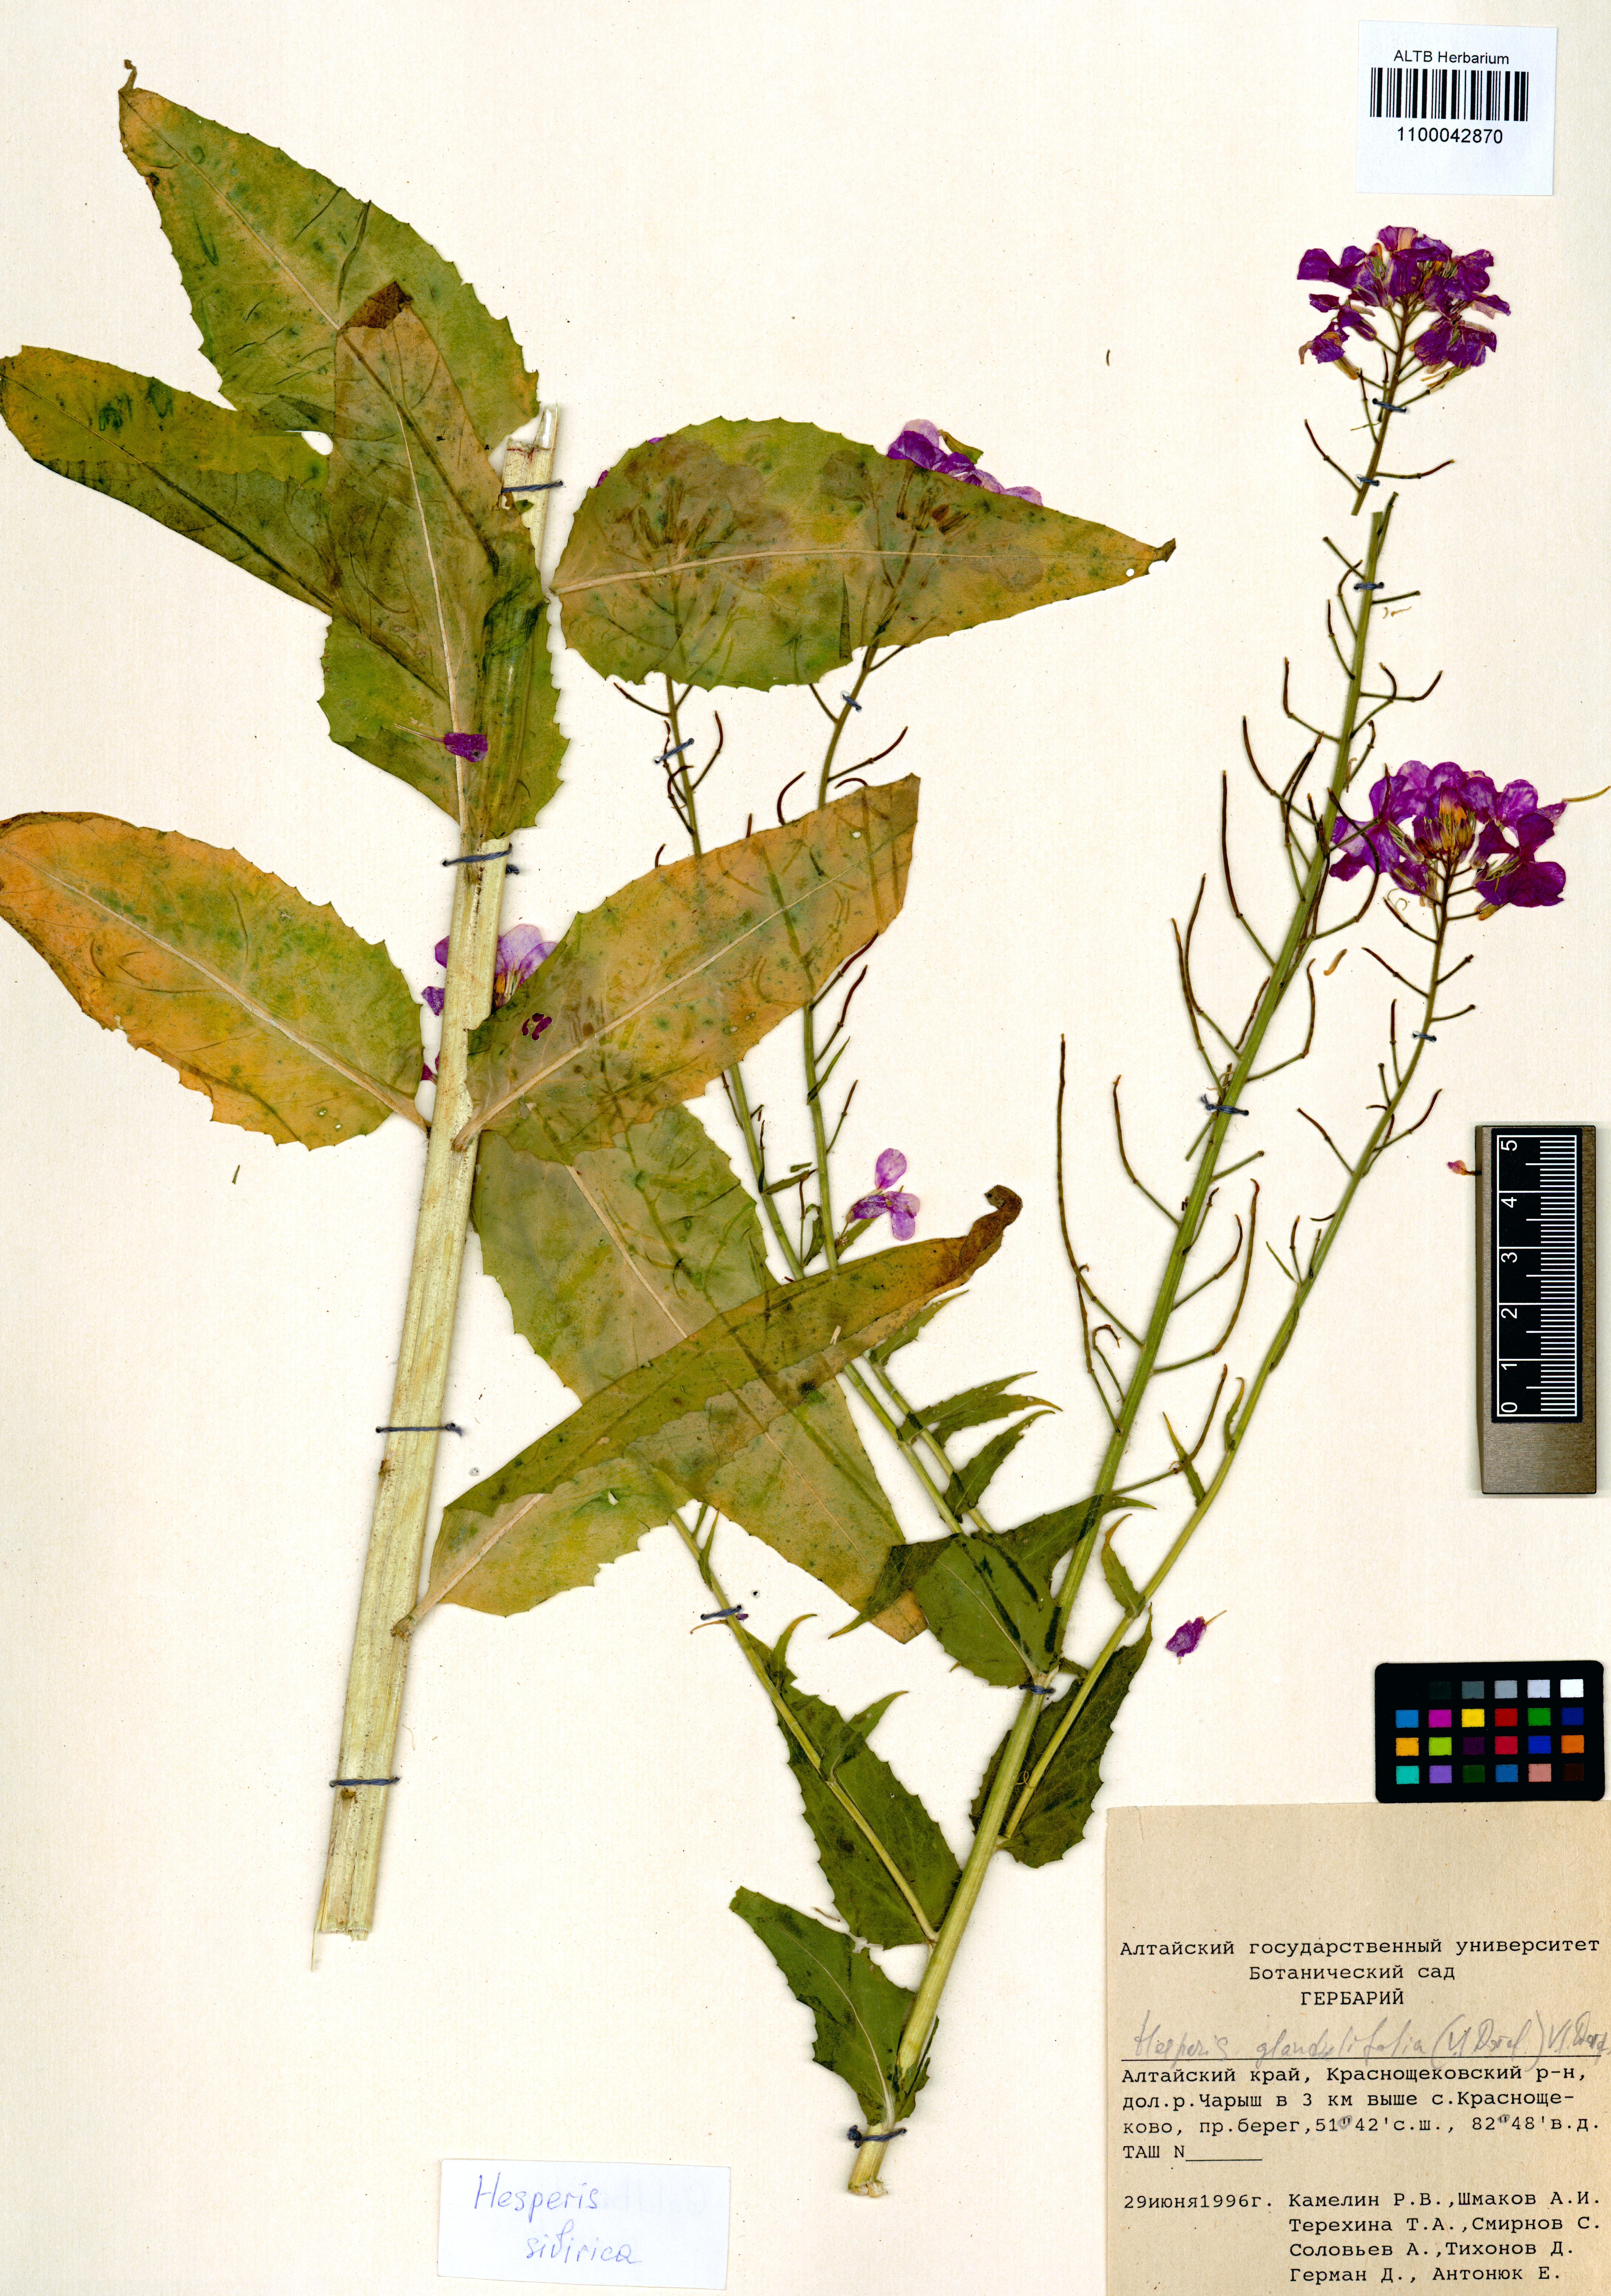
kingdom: Plantae
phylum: Tracheophyta
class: Magnoliopsida
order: Brassicales
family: Brassicaceae
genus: Hesperis
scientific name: Hesperis sibirica
